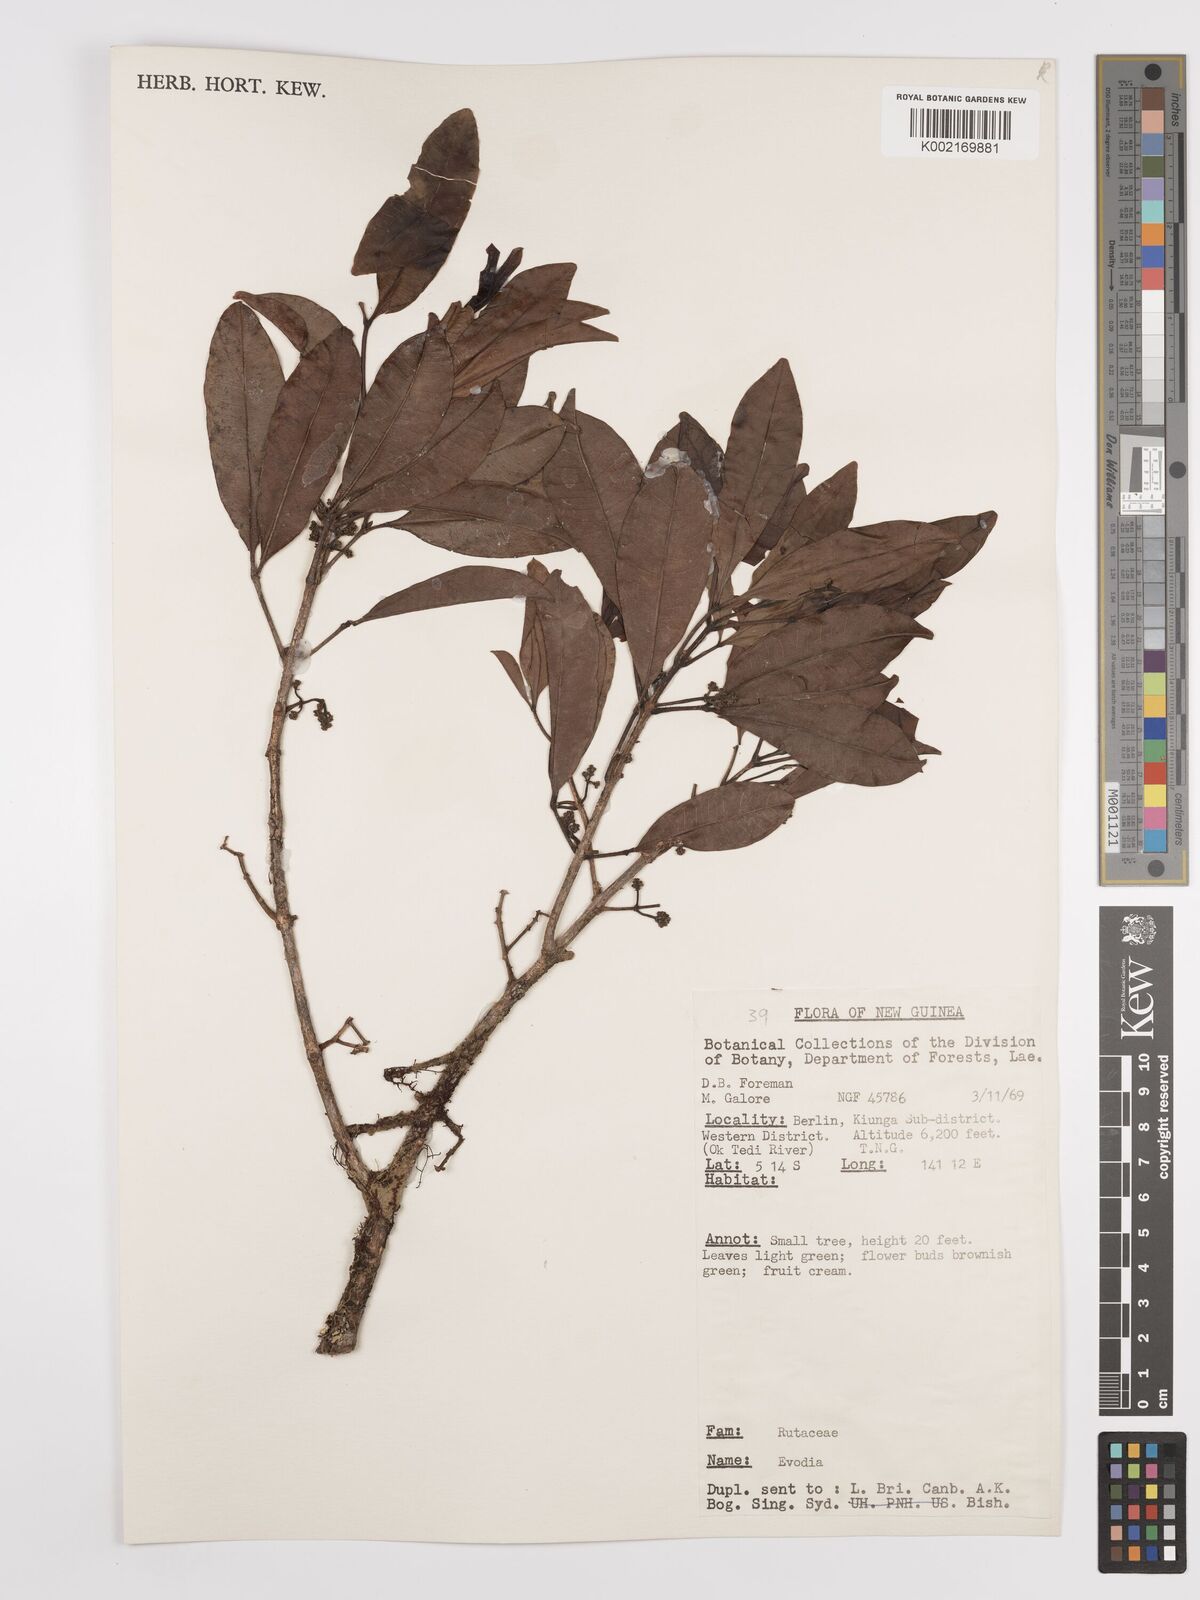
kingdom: Plantae
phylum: Tracheophyta
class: Magnoliopsida
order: Sapindales
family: Rutaceae
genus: Euodia
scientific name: Euodia
